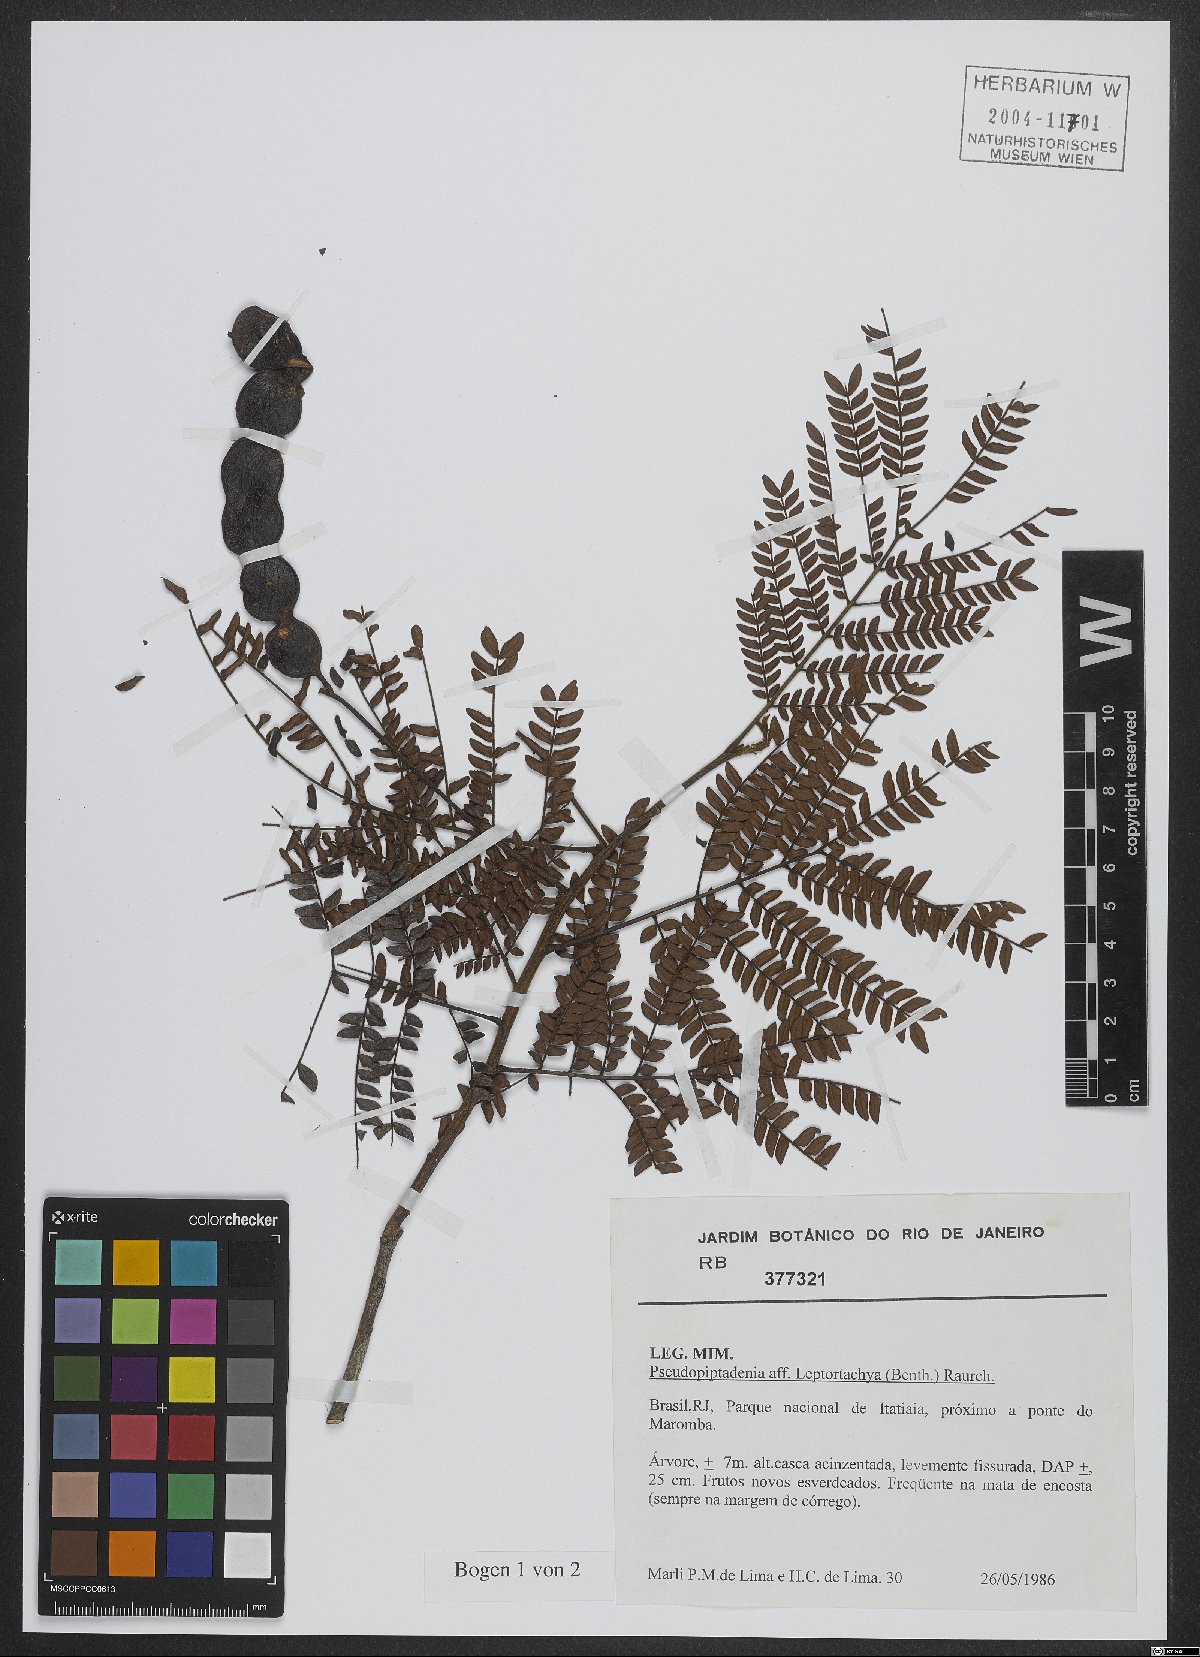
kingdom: Plantae
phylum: Tracheophyta
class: Magnoliopsida
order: Fabales
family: Fabaceae
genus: Pseudopiptadenia
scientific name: Pseudopiptadenia leptostachya
